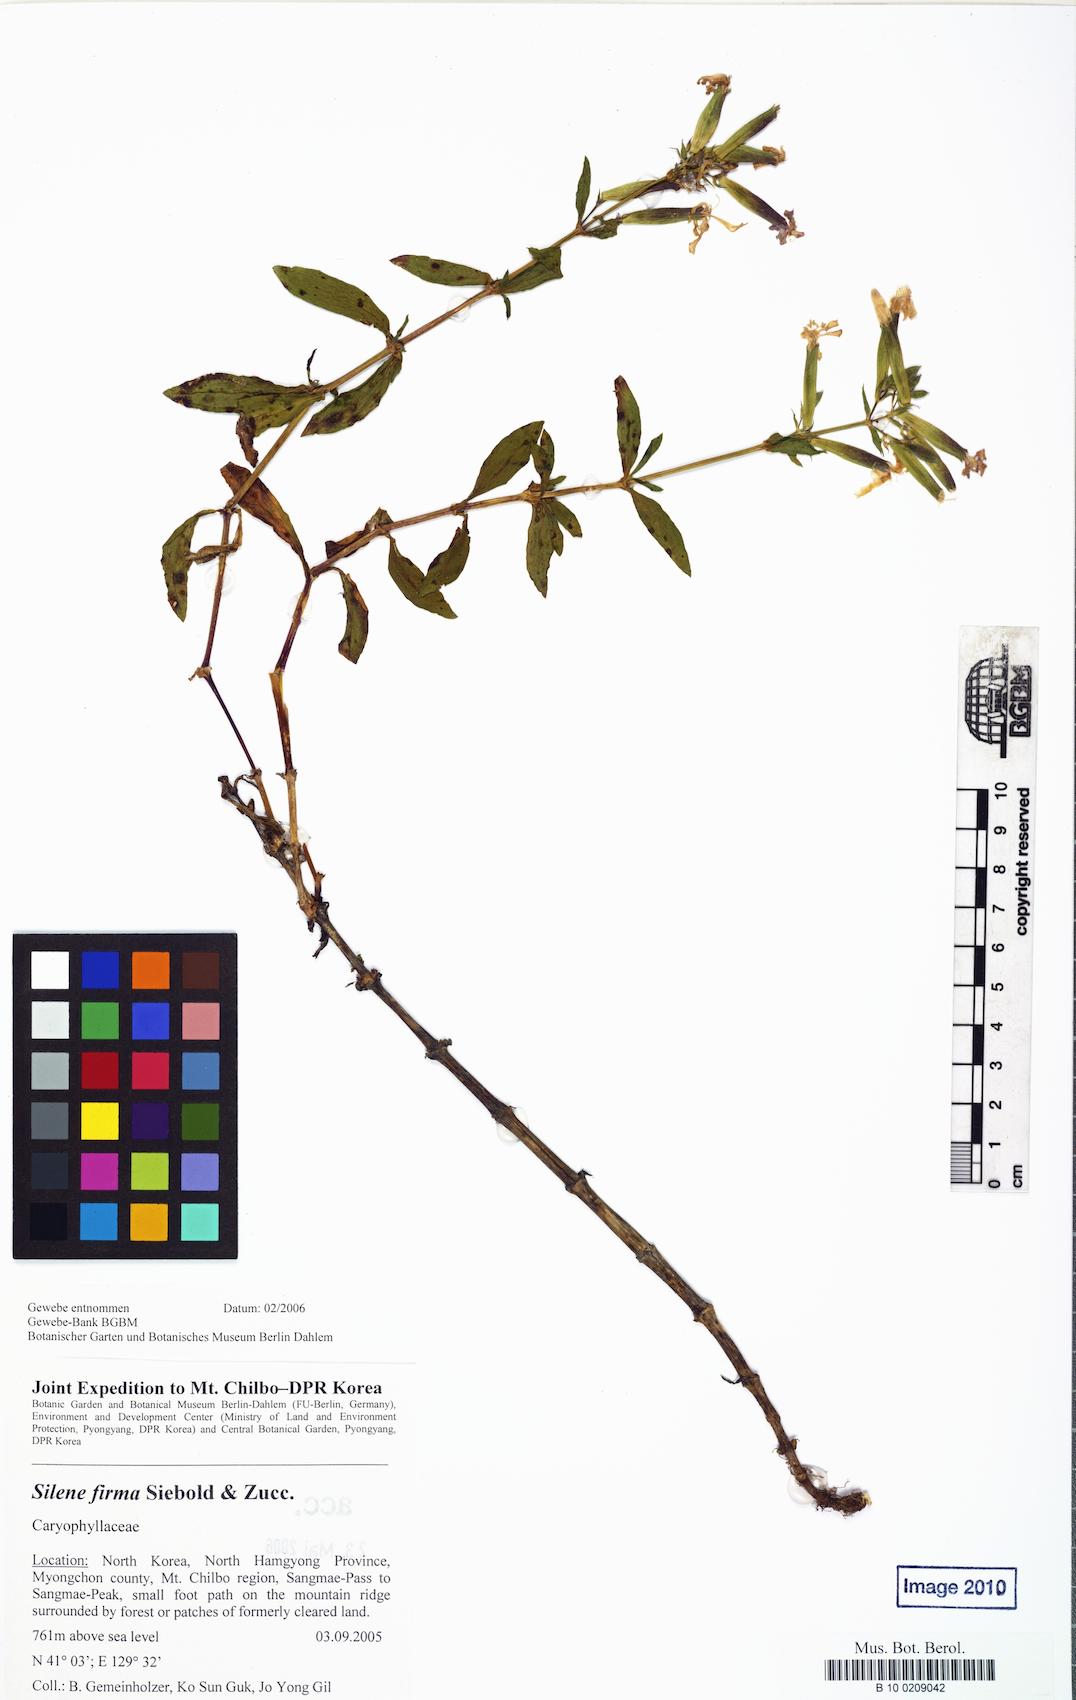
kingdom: Plantae
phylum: Tracheophyta
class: Magnoliopsida
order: Caryophyllales
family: Caryophyllaceae
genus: Silene
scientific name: Silene firma
